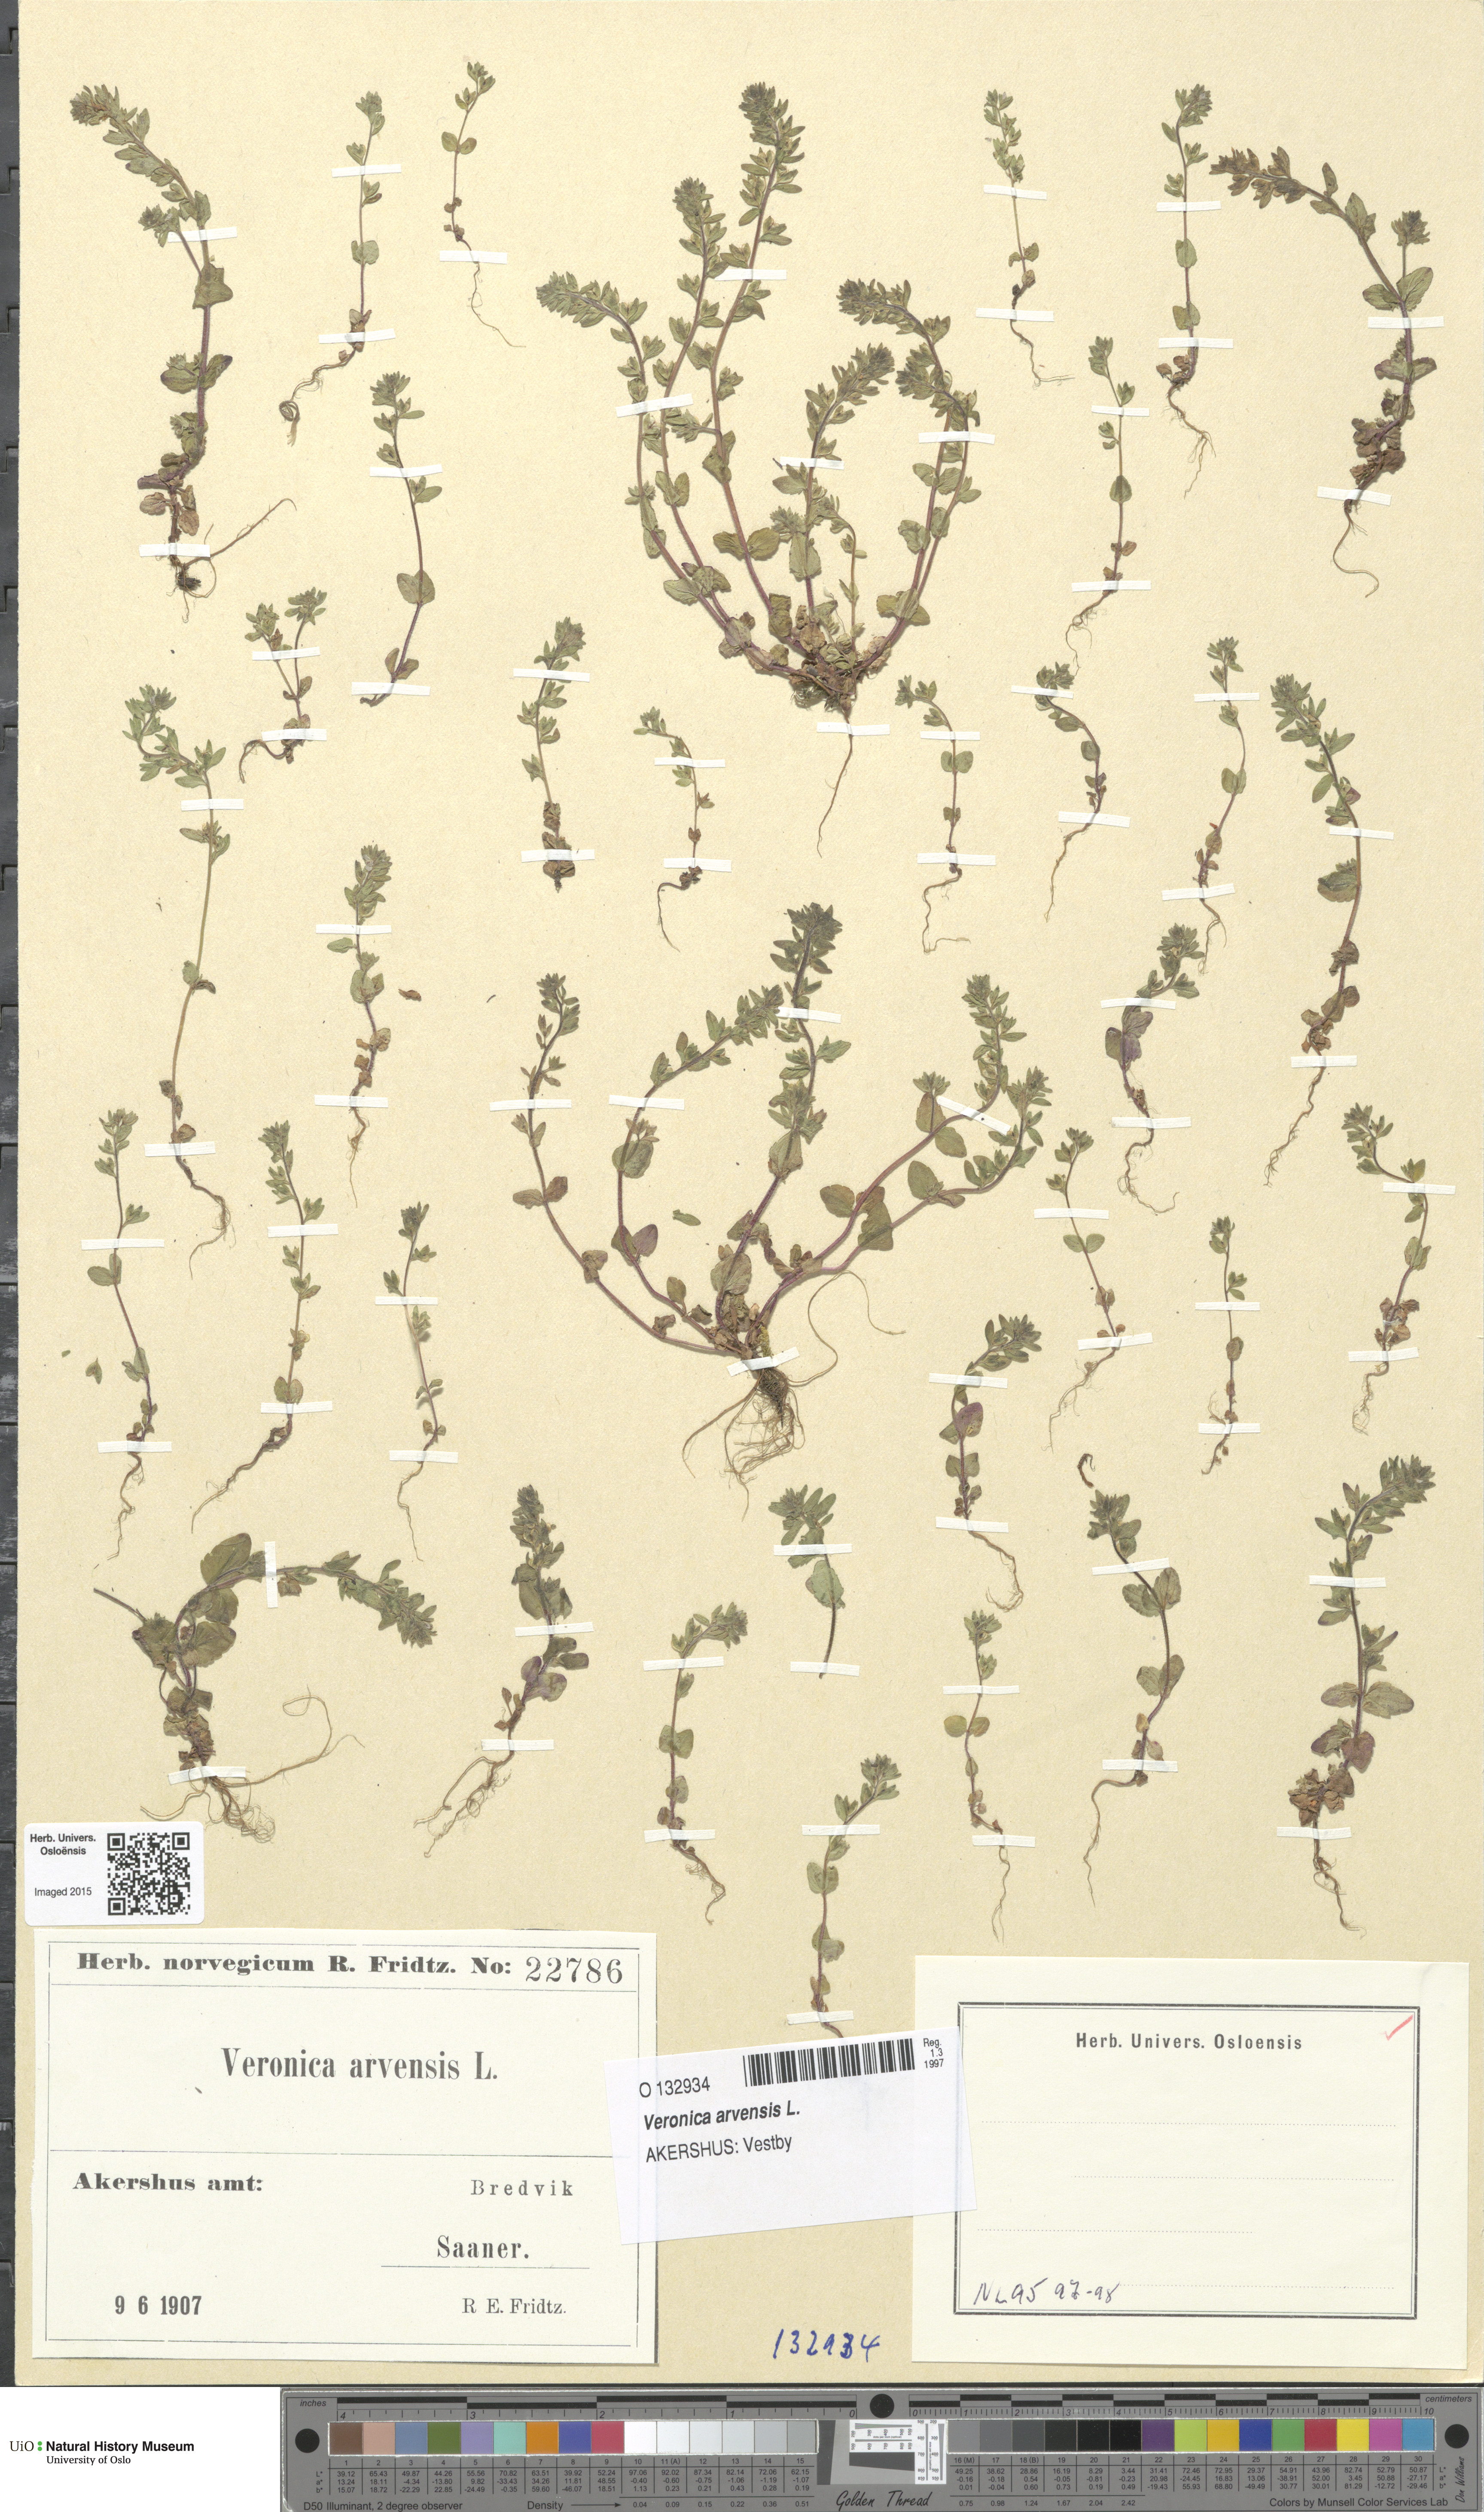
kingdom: Plantae
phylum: Tracheophyta
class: Magnoliopsida
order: Lamiales
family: Plantaginaceae
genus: Veronica
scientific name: Veronica arvensis
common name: Corn speedwell
